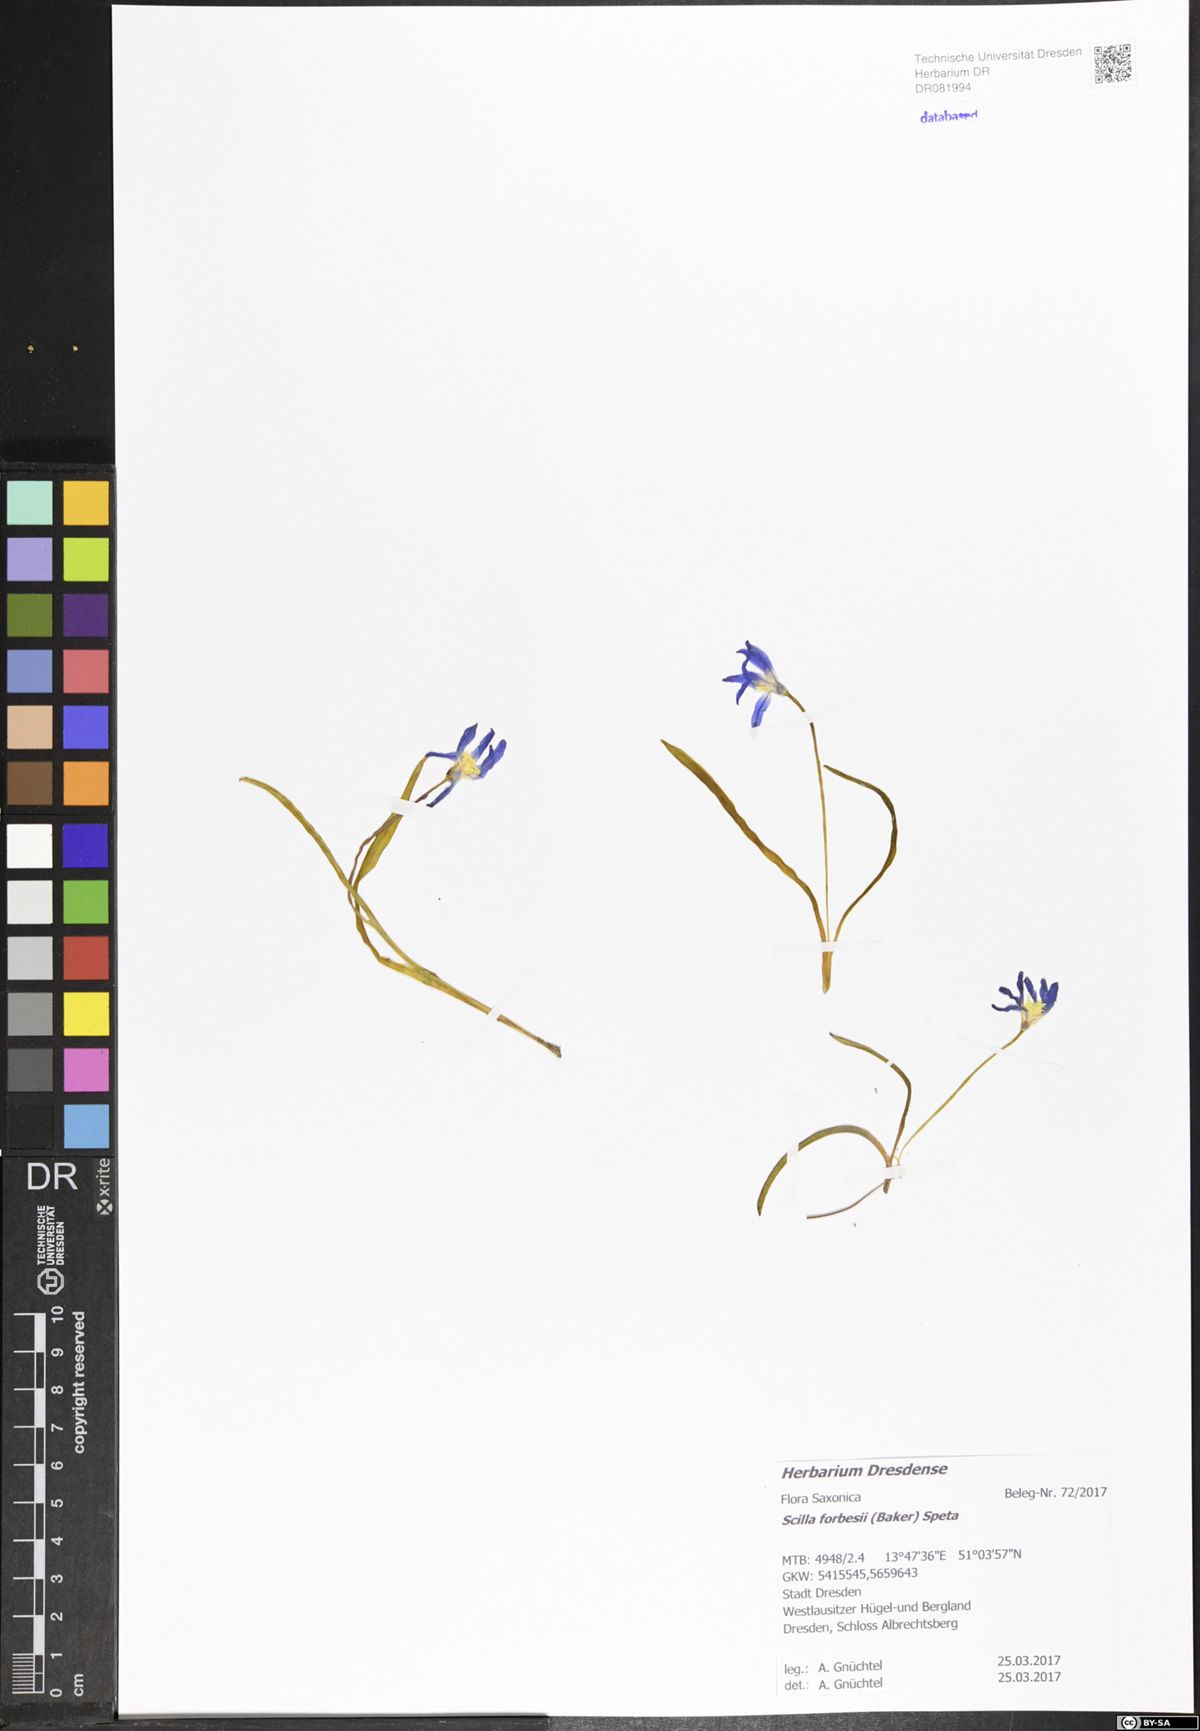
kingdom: Plantae
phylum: Tracheophyta
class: Liliopsida
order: Asparagales
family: Asparagaceae
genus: Scilla
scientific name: Scilla forbesii
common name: Glory-of-the-snow
